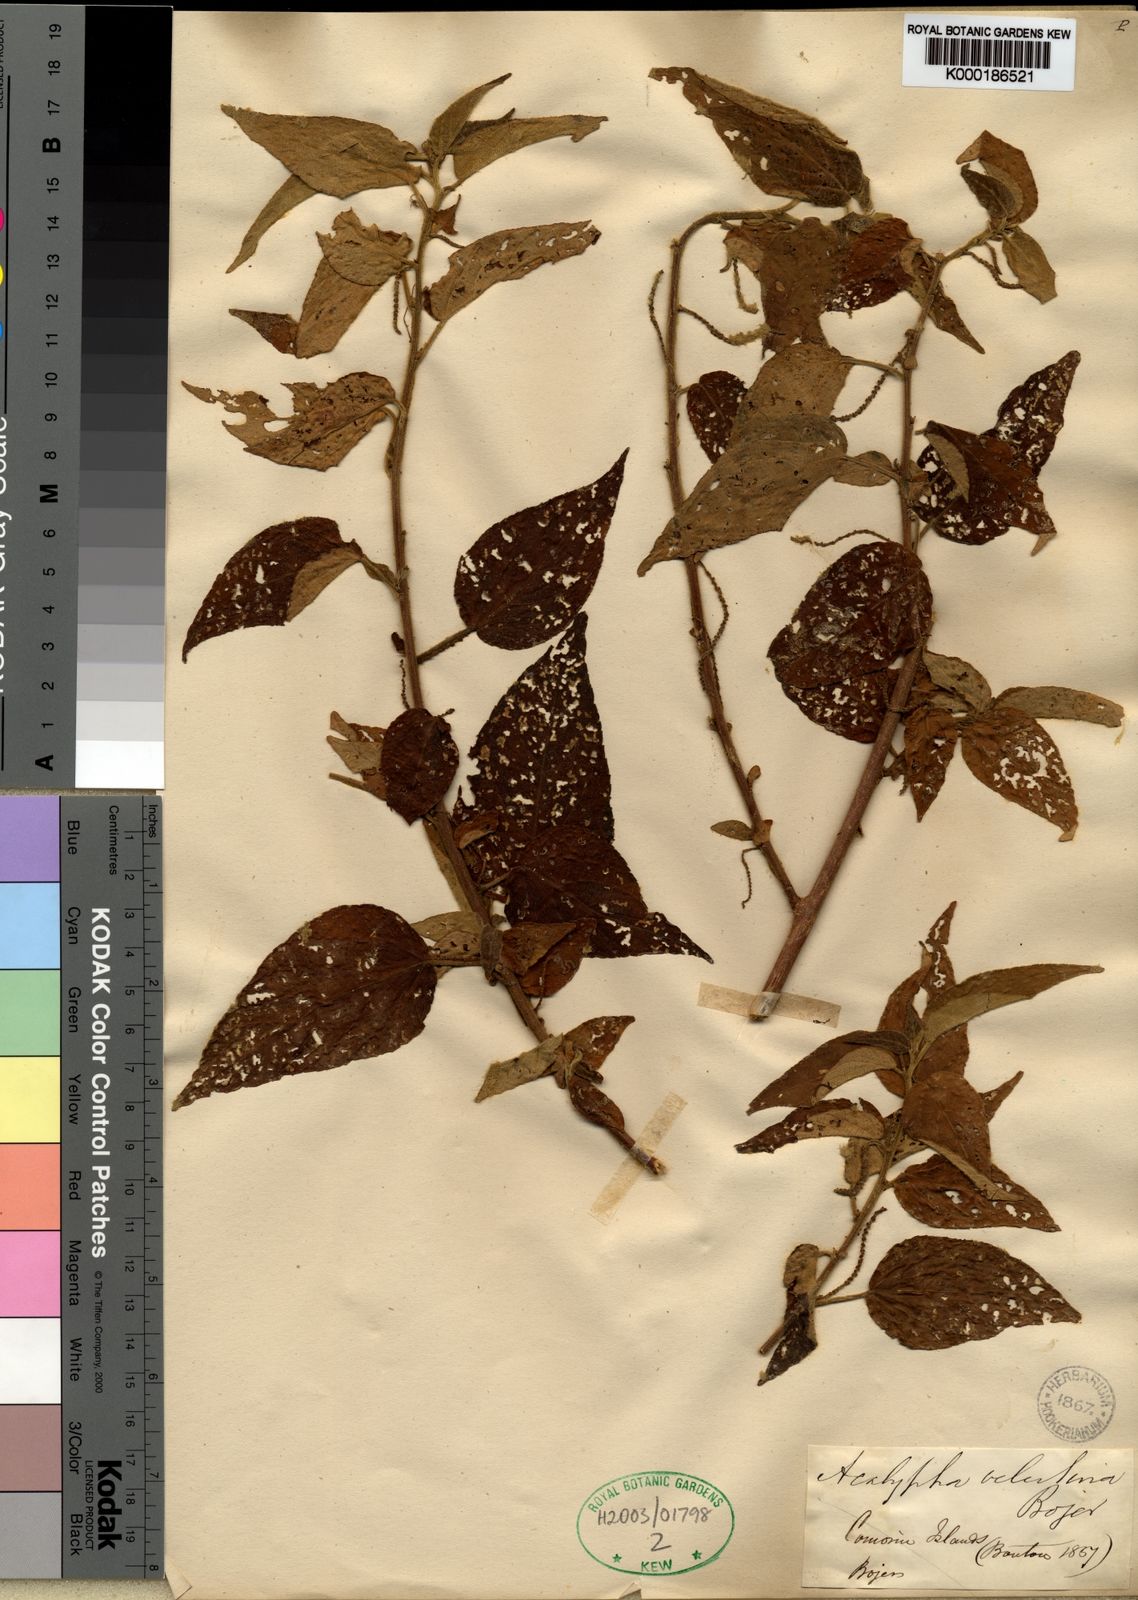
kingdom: Plantae
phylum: Tracheophyta
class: Magnoliopsida
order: Malpighiales
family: Euphorbiaceae
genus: Acalypha
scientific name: Acalypha
